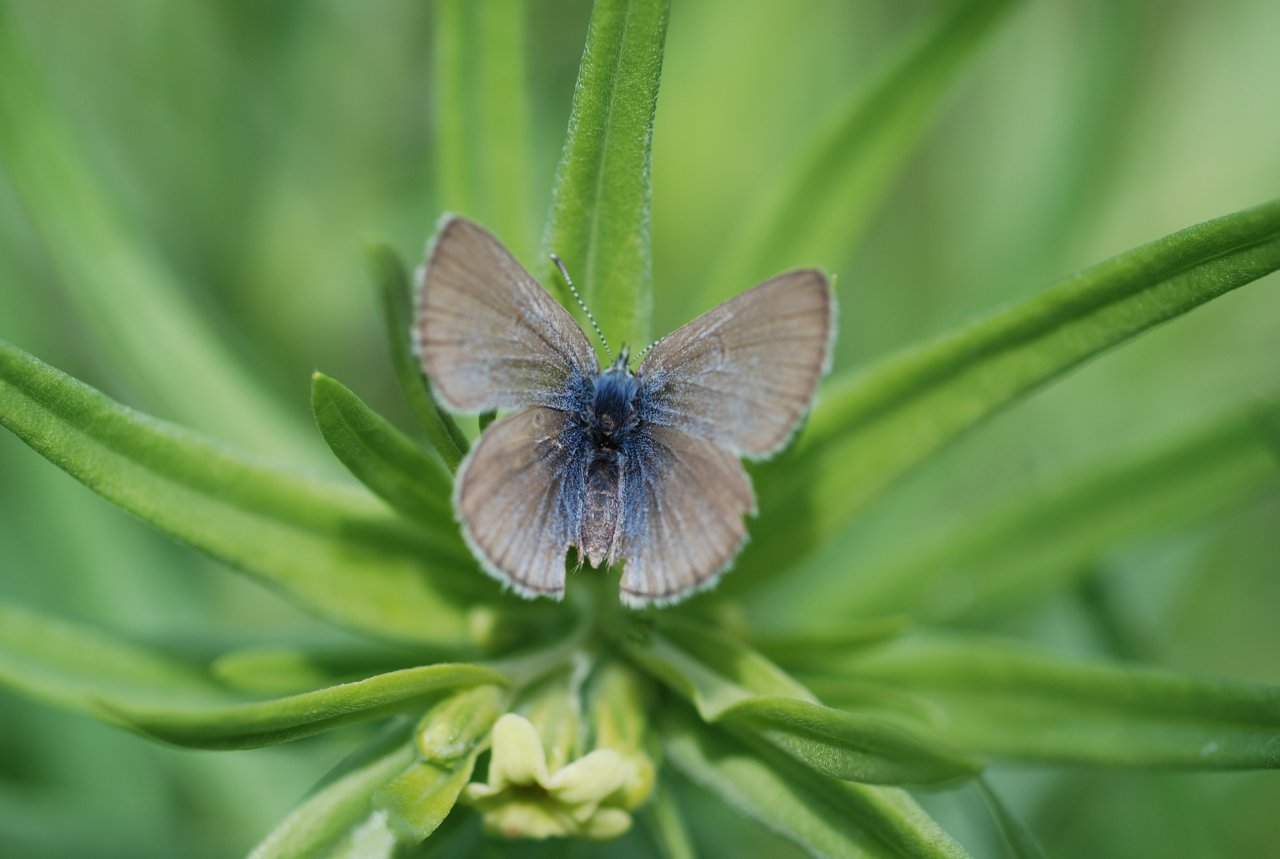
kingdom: Animalia
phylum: Arthropoda
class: Insecta
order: Lepidoptera
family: Lycaenidae
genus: Plebejus
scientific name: Plebejus saepiolus
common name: Greenish Blue
